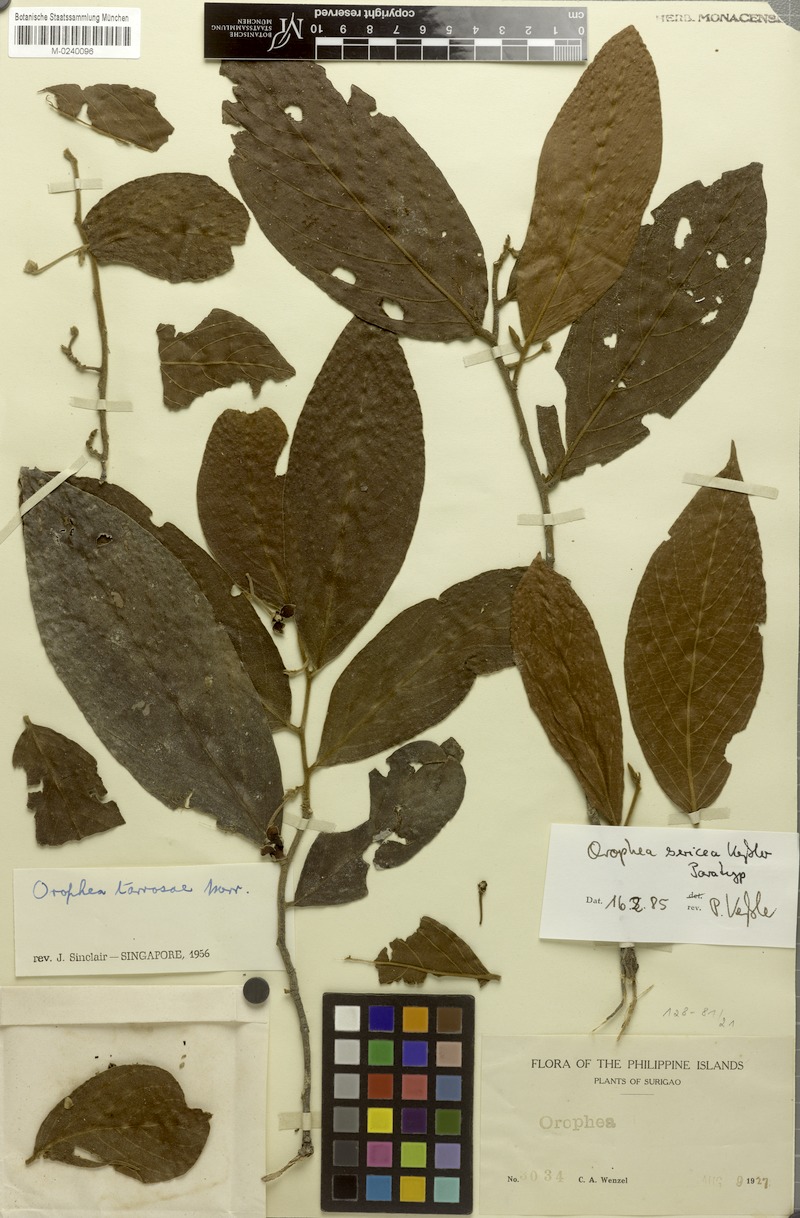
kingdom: Plantae
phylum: Tracheophyta
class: Magnoliopsida
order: Magnoliales
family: Annonaceae
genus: Orophea
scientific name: Orophea sericea
